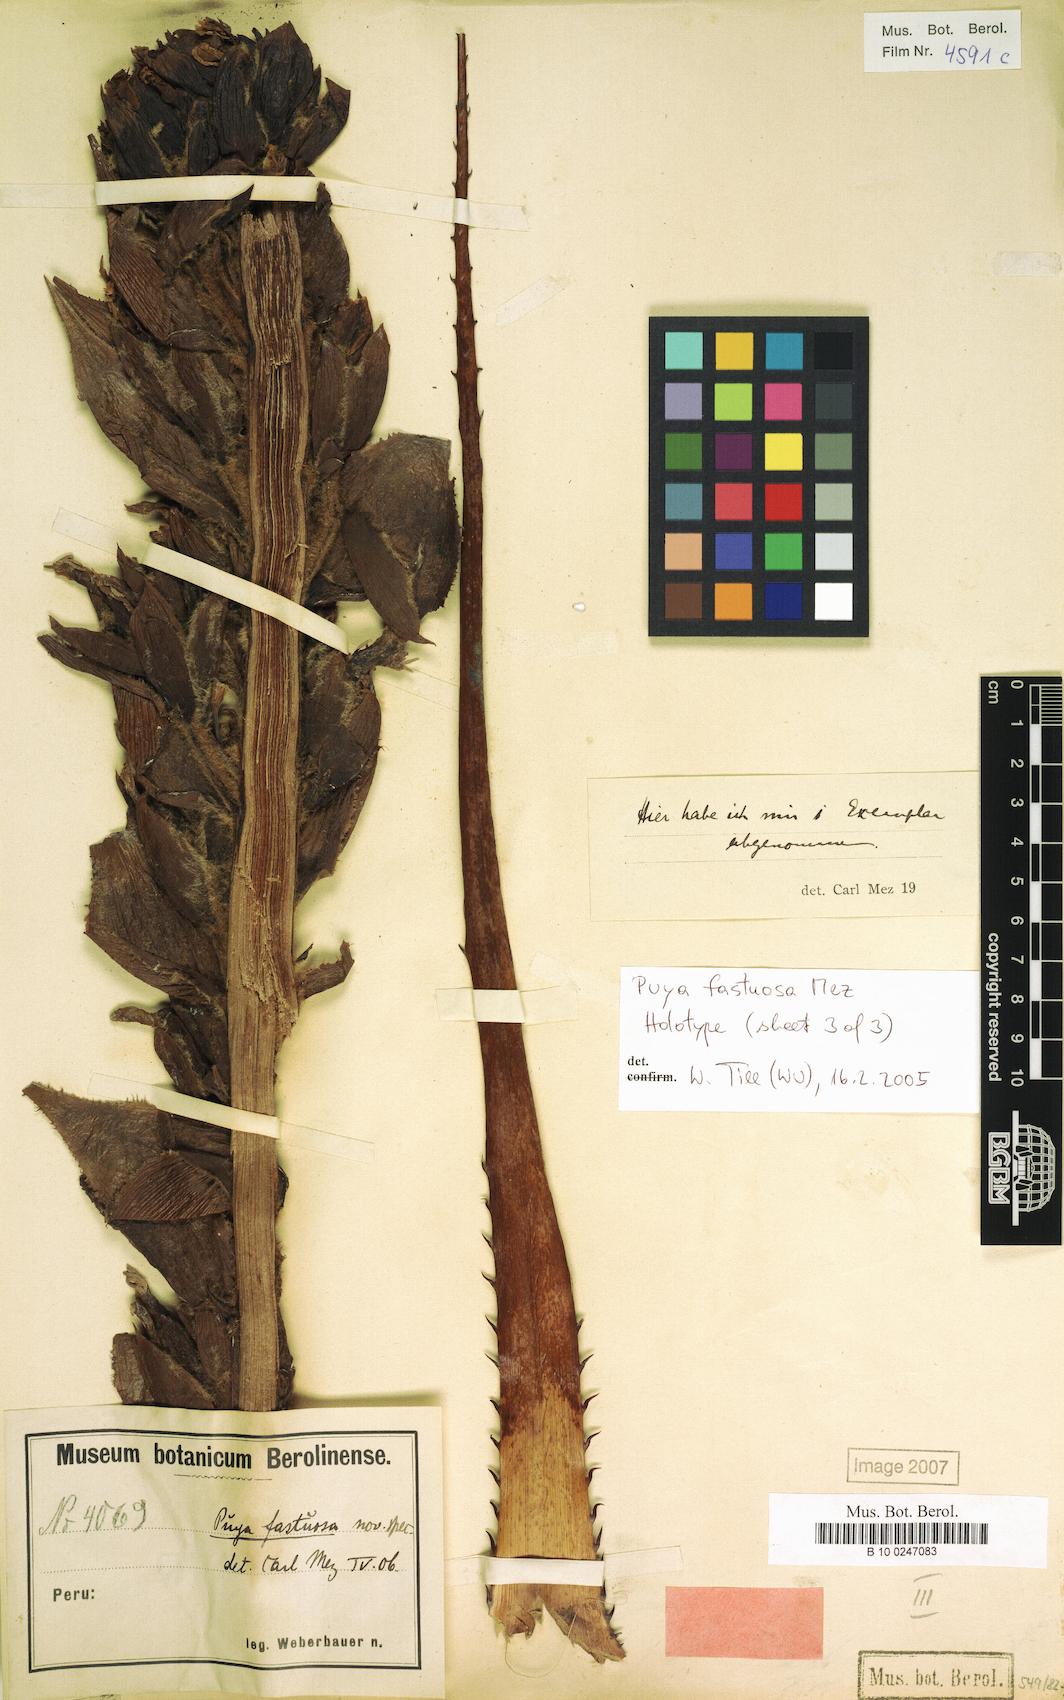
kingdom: Plantae
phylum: Tracheophyta
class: Liliopsida
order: Poales
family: Bromeliaceae
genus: Puya
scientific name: Puya fastuosa
